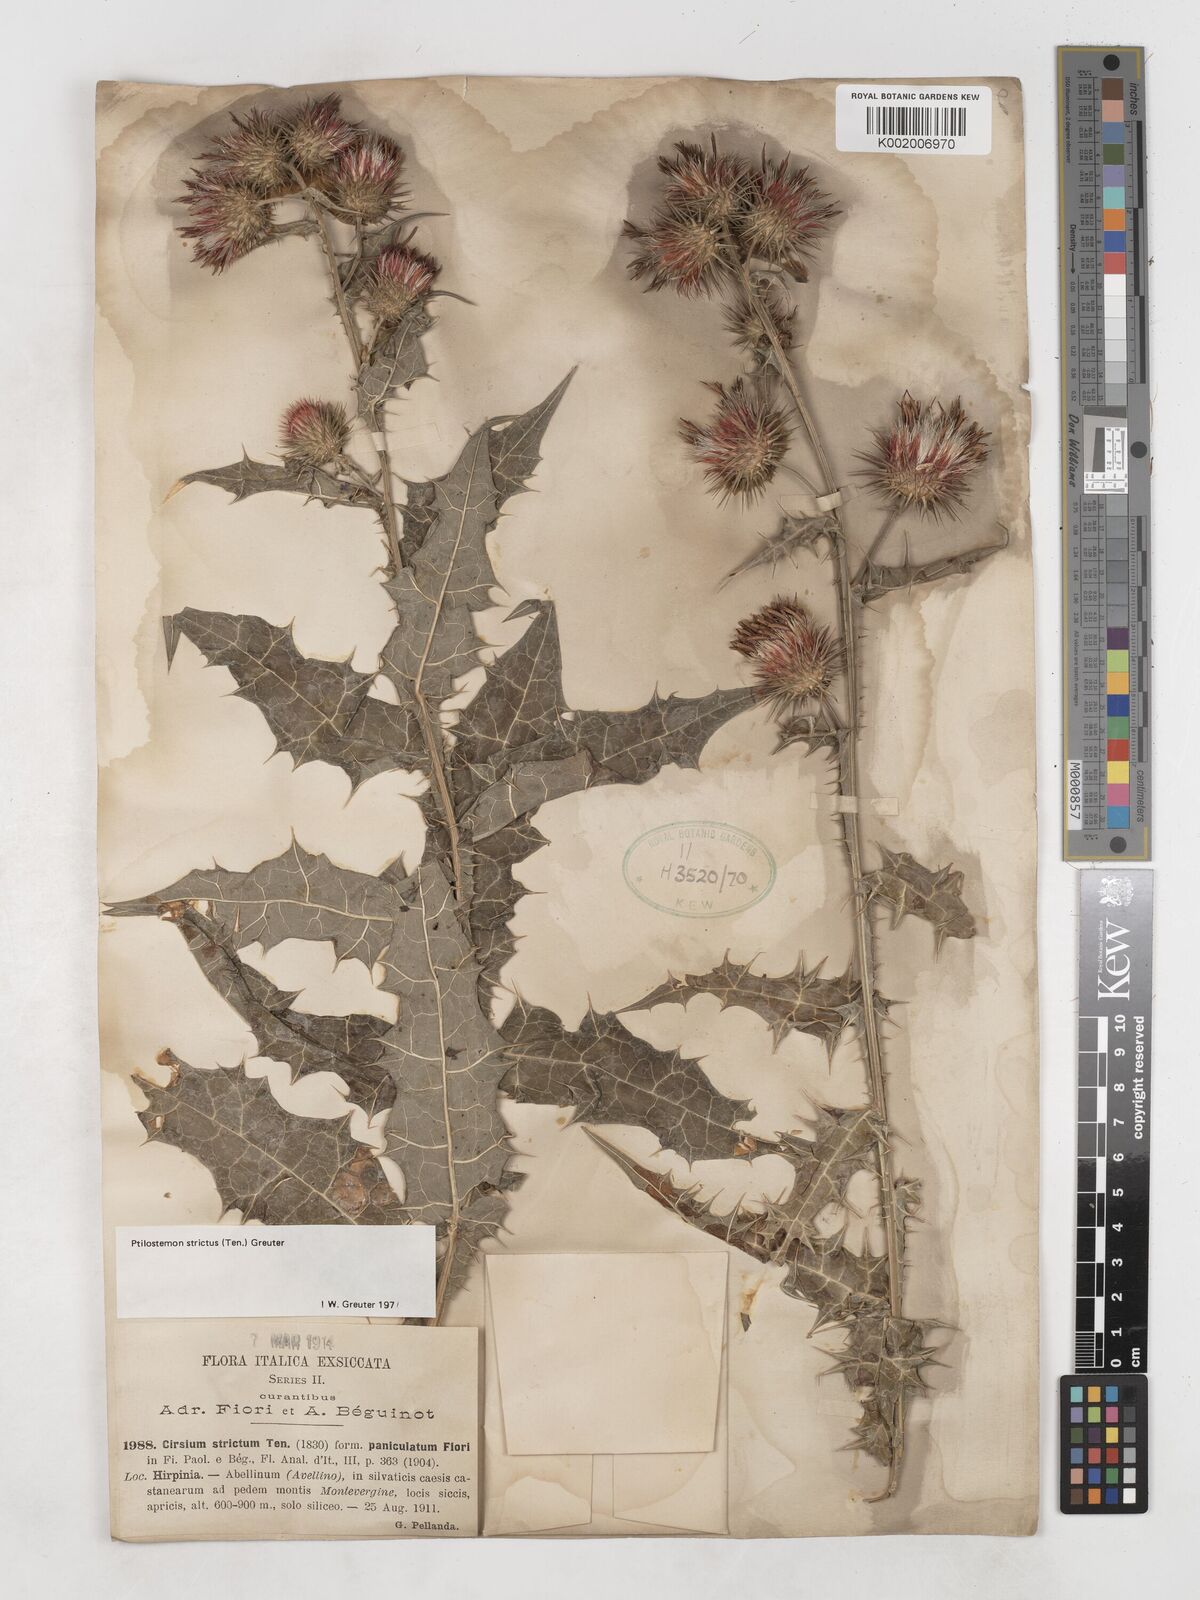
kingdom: Plantae
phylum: Tracheophyta
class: Magnoliopsida
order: Asterales
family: Asteraceae
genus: Ptilostemon
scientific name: Ptilostemon strictus
